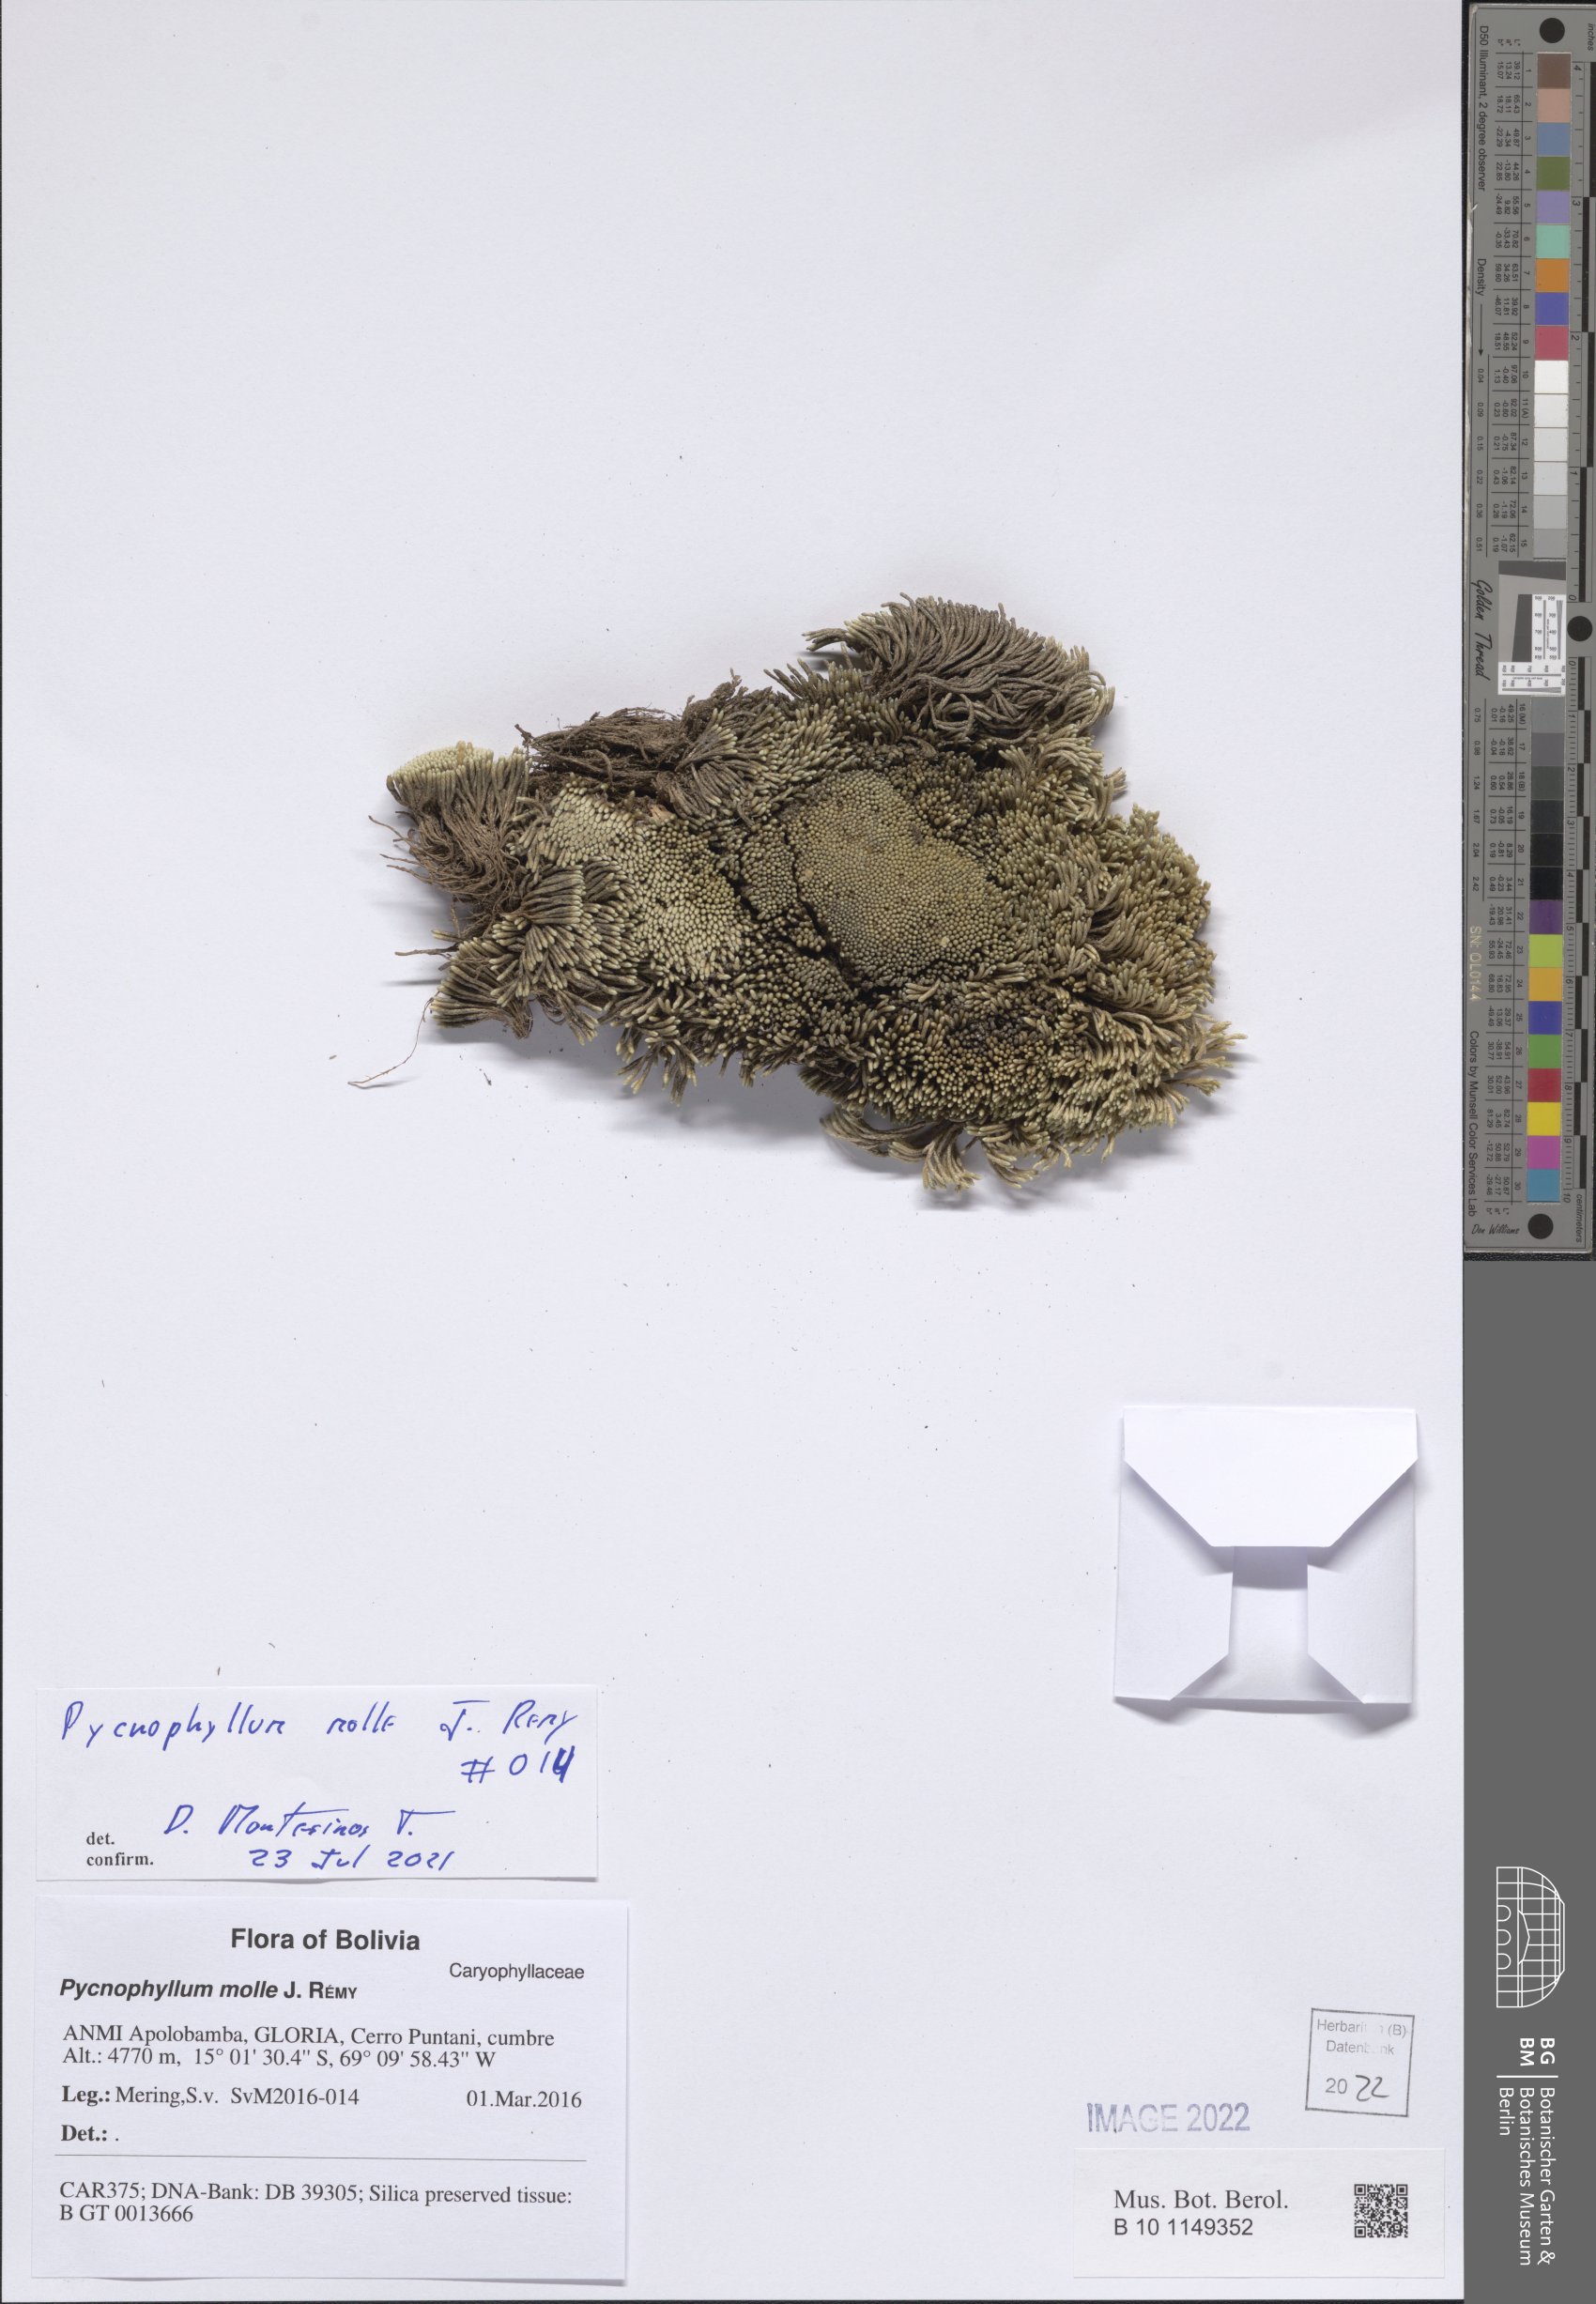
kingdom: Plantae
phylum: Tracheophyta
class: Magnoliopsida
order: Caryophyllales
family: Caryophyllaceae
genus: Pycnophyllum
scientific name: Pycnophyllum molle
